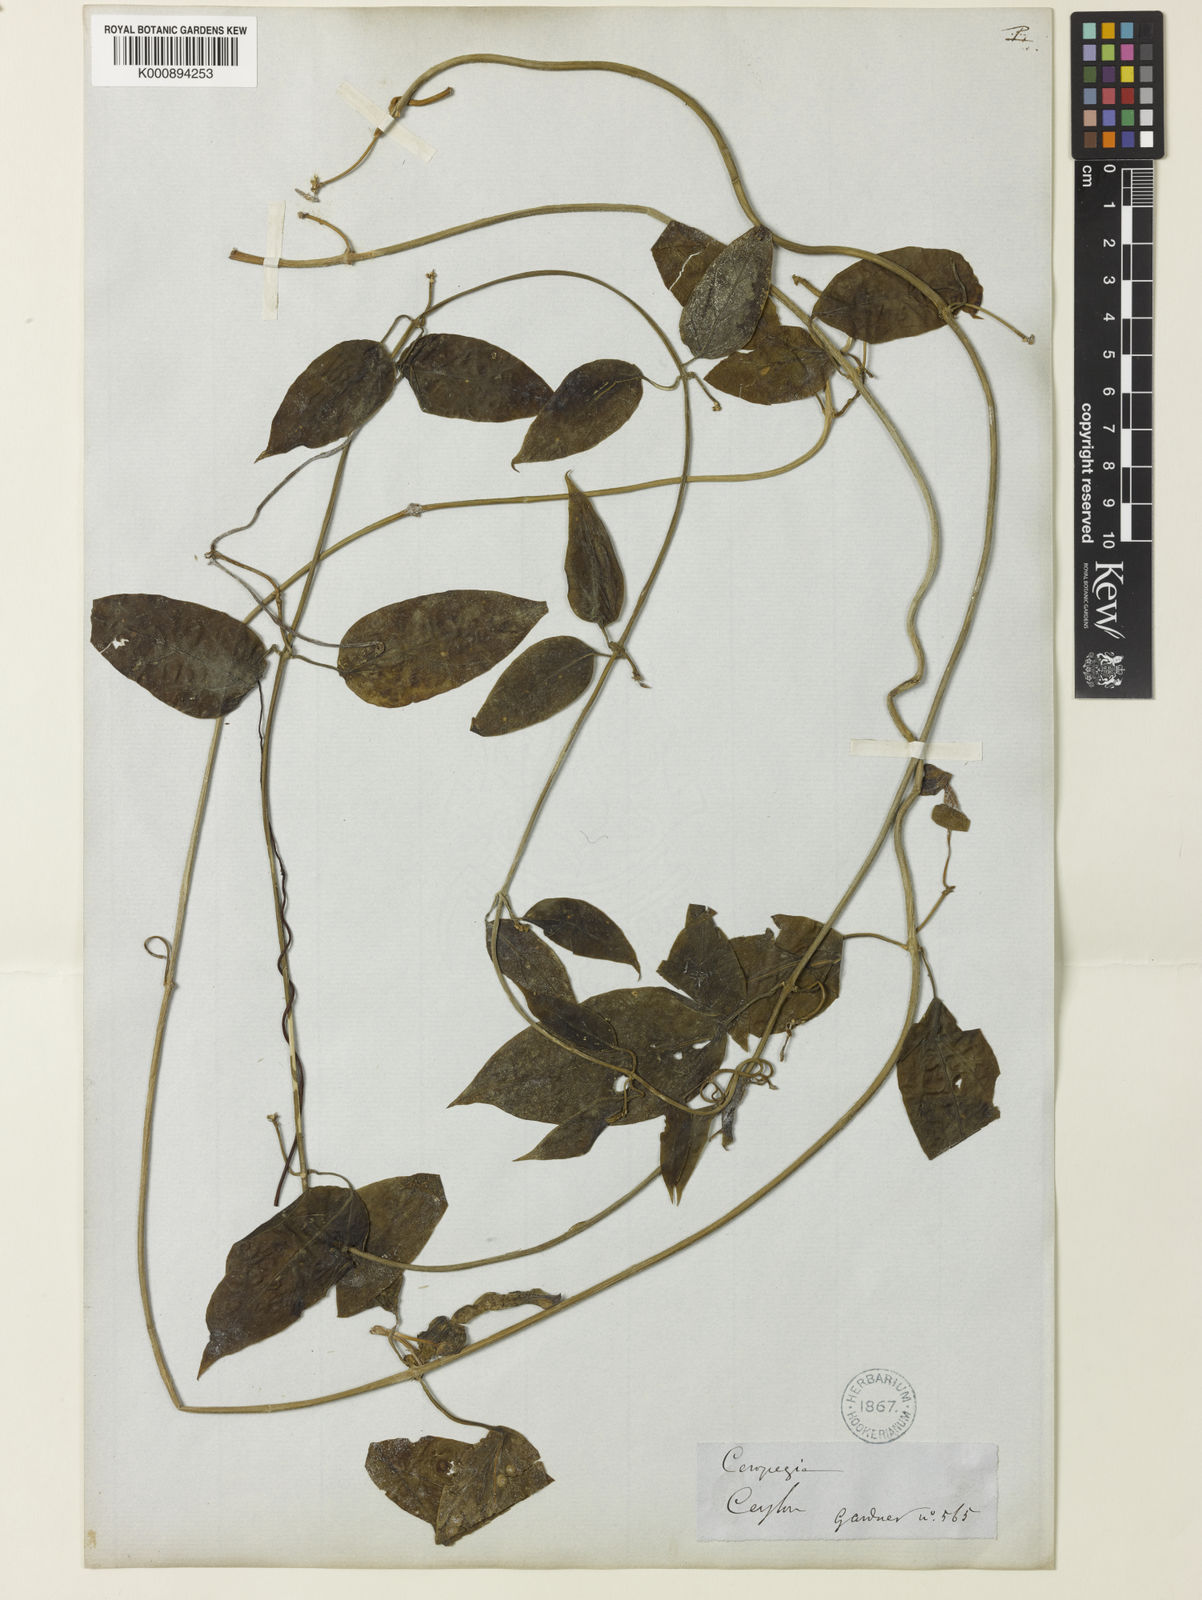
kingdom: Plantae
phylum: Tracheophyta
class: Magnoliopsida
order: Gentianales
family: Apocynaceae
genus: Ceropegia
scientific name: Ceropegia
